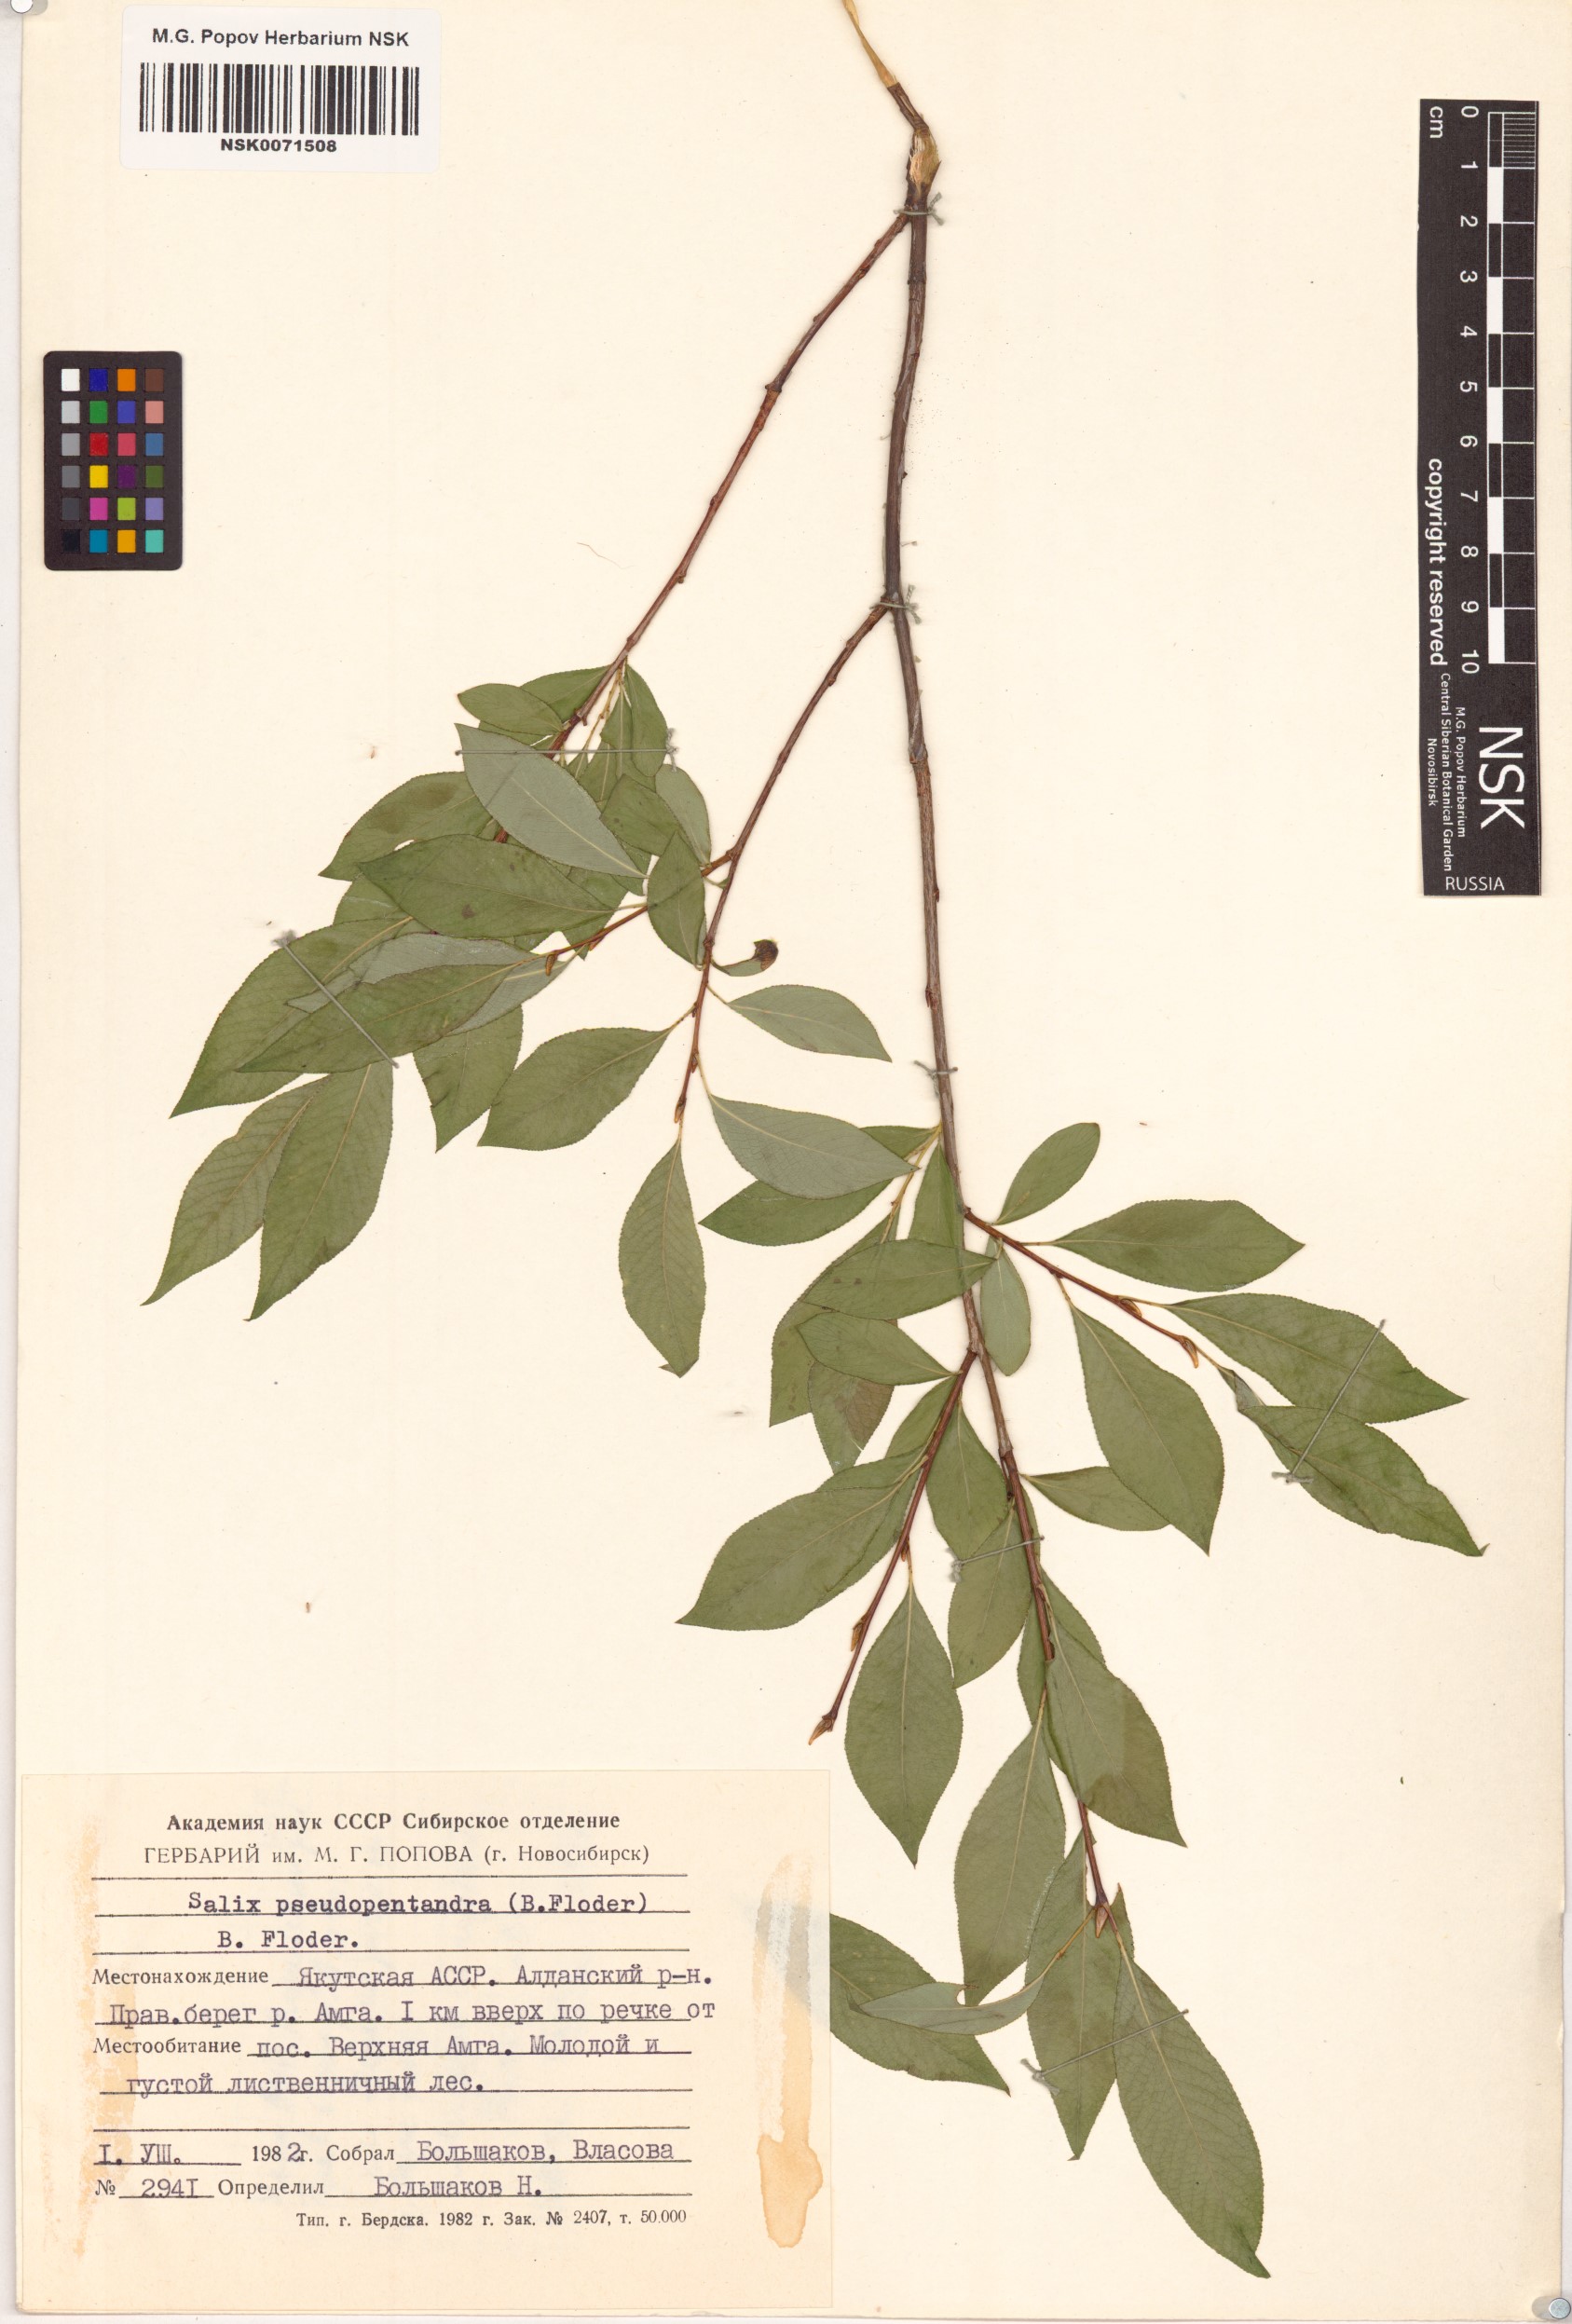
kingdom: Plantae
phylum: Tracheophyta
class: Magnoliopsida
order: Malpighiales
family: Salicaceae
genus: Salix
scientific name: Salix pseudopentandra
